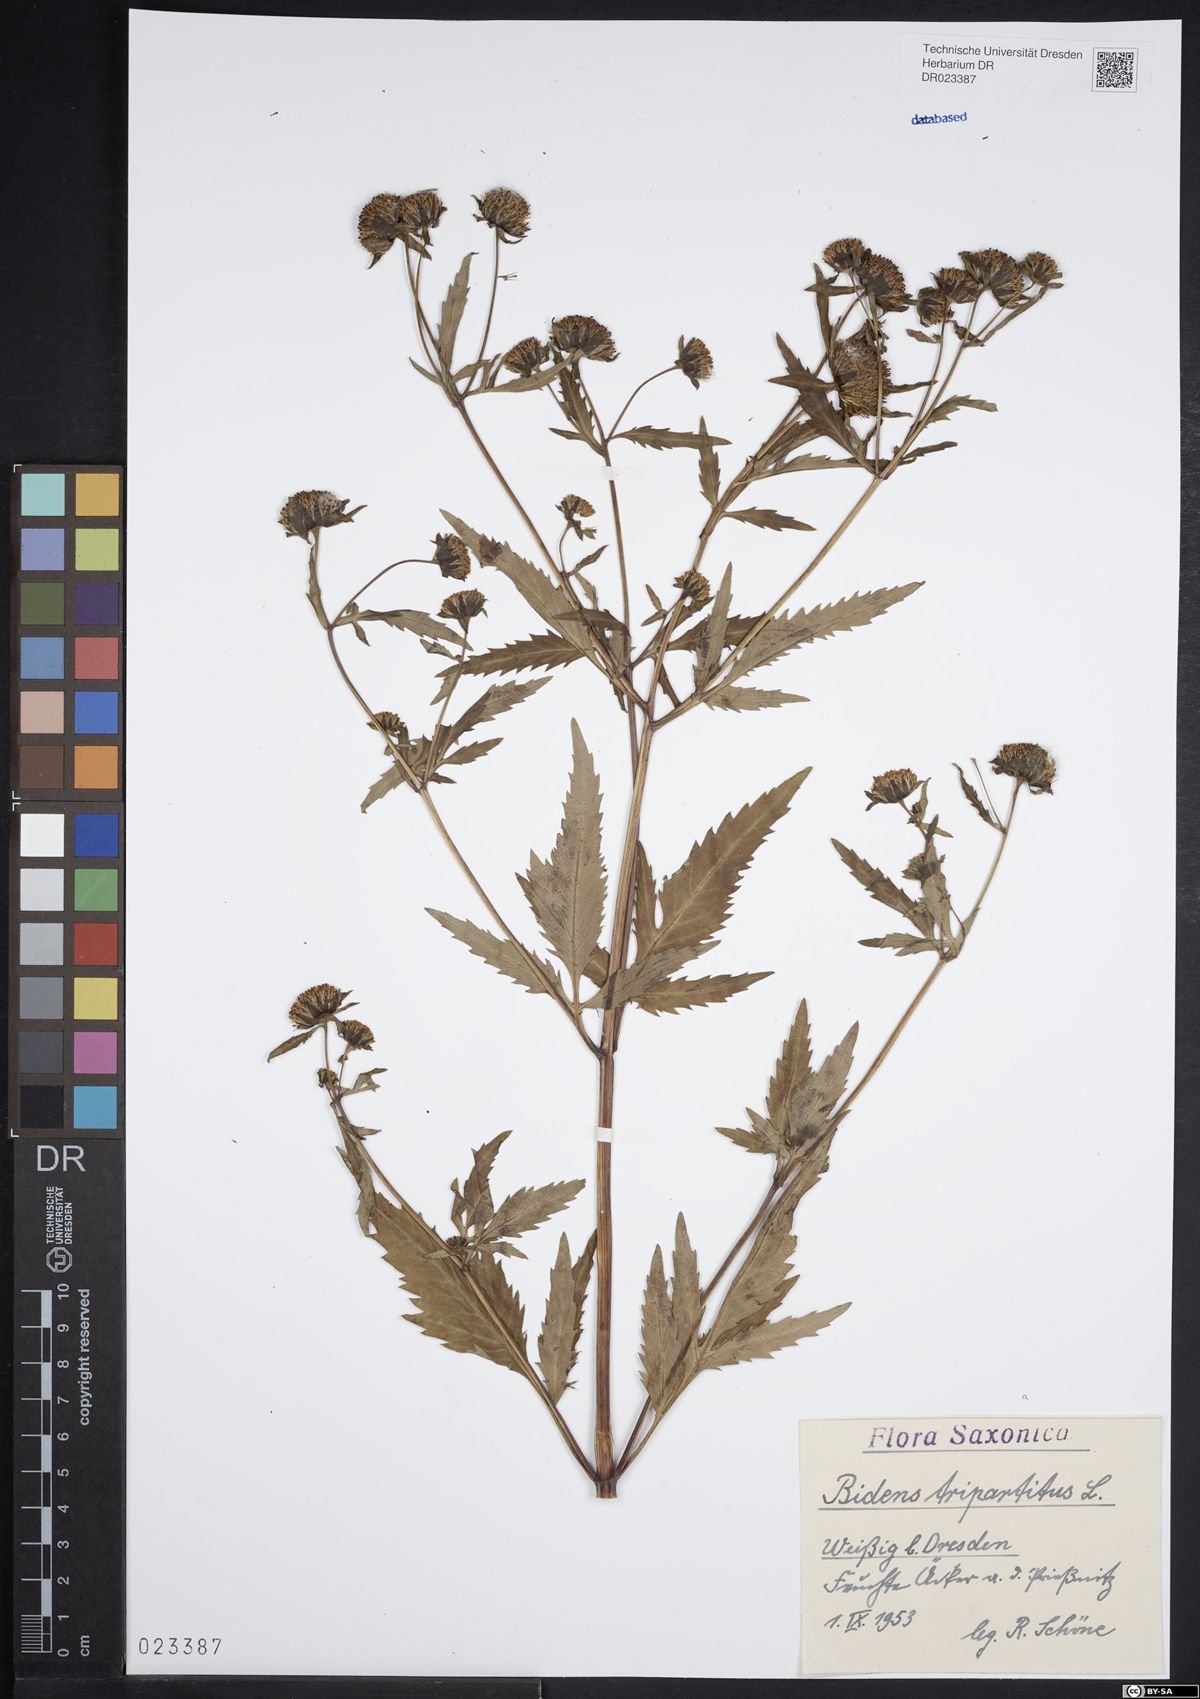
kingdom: Plantae
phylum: Tracheophyta
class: Magnoliopsida
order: Asterales
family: Asteraceae
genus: Bidens
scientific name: Bidens tripartita
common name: Trifid bur-marigold
